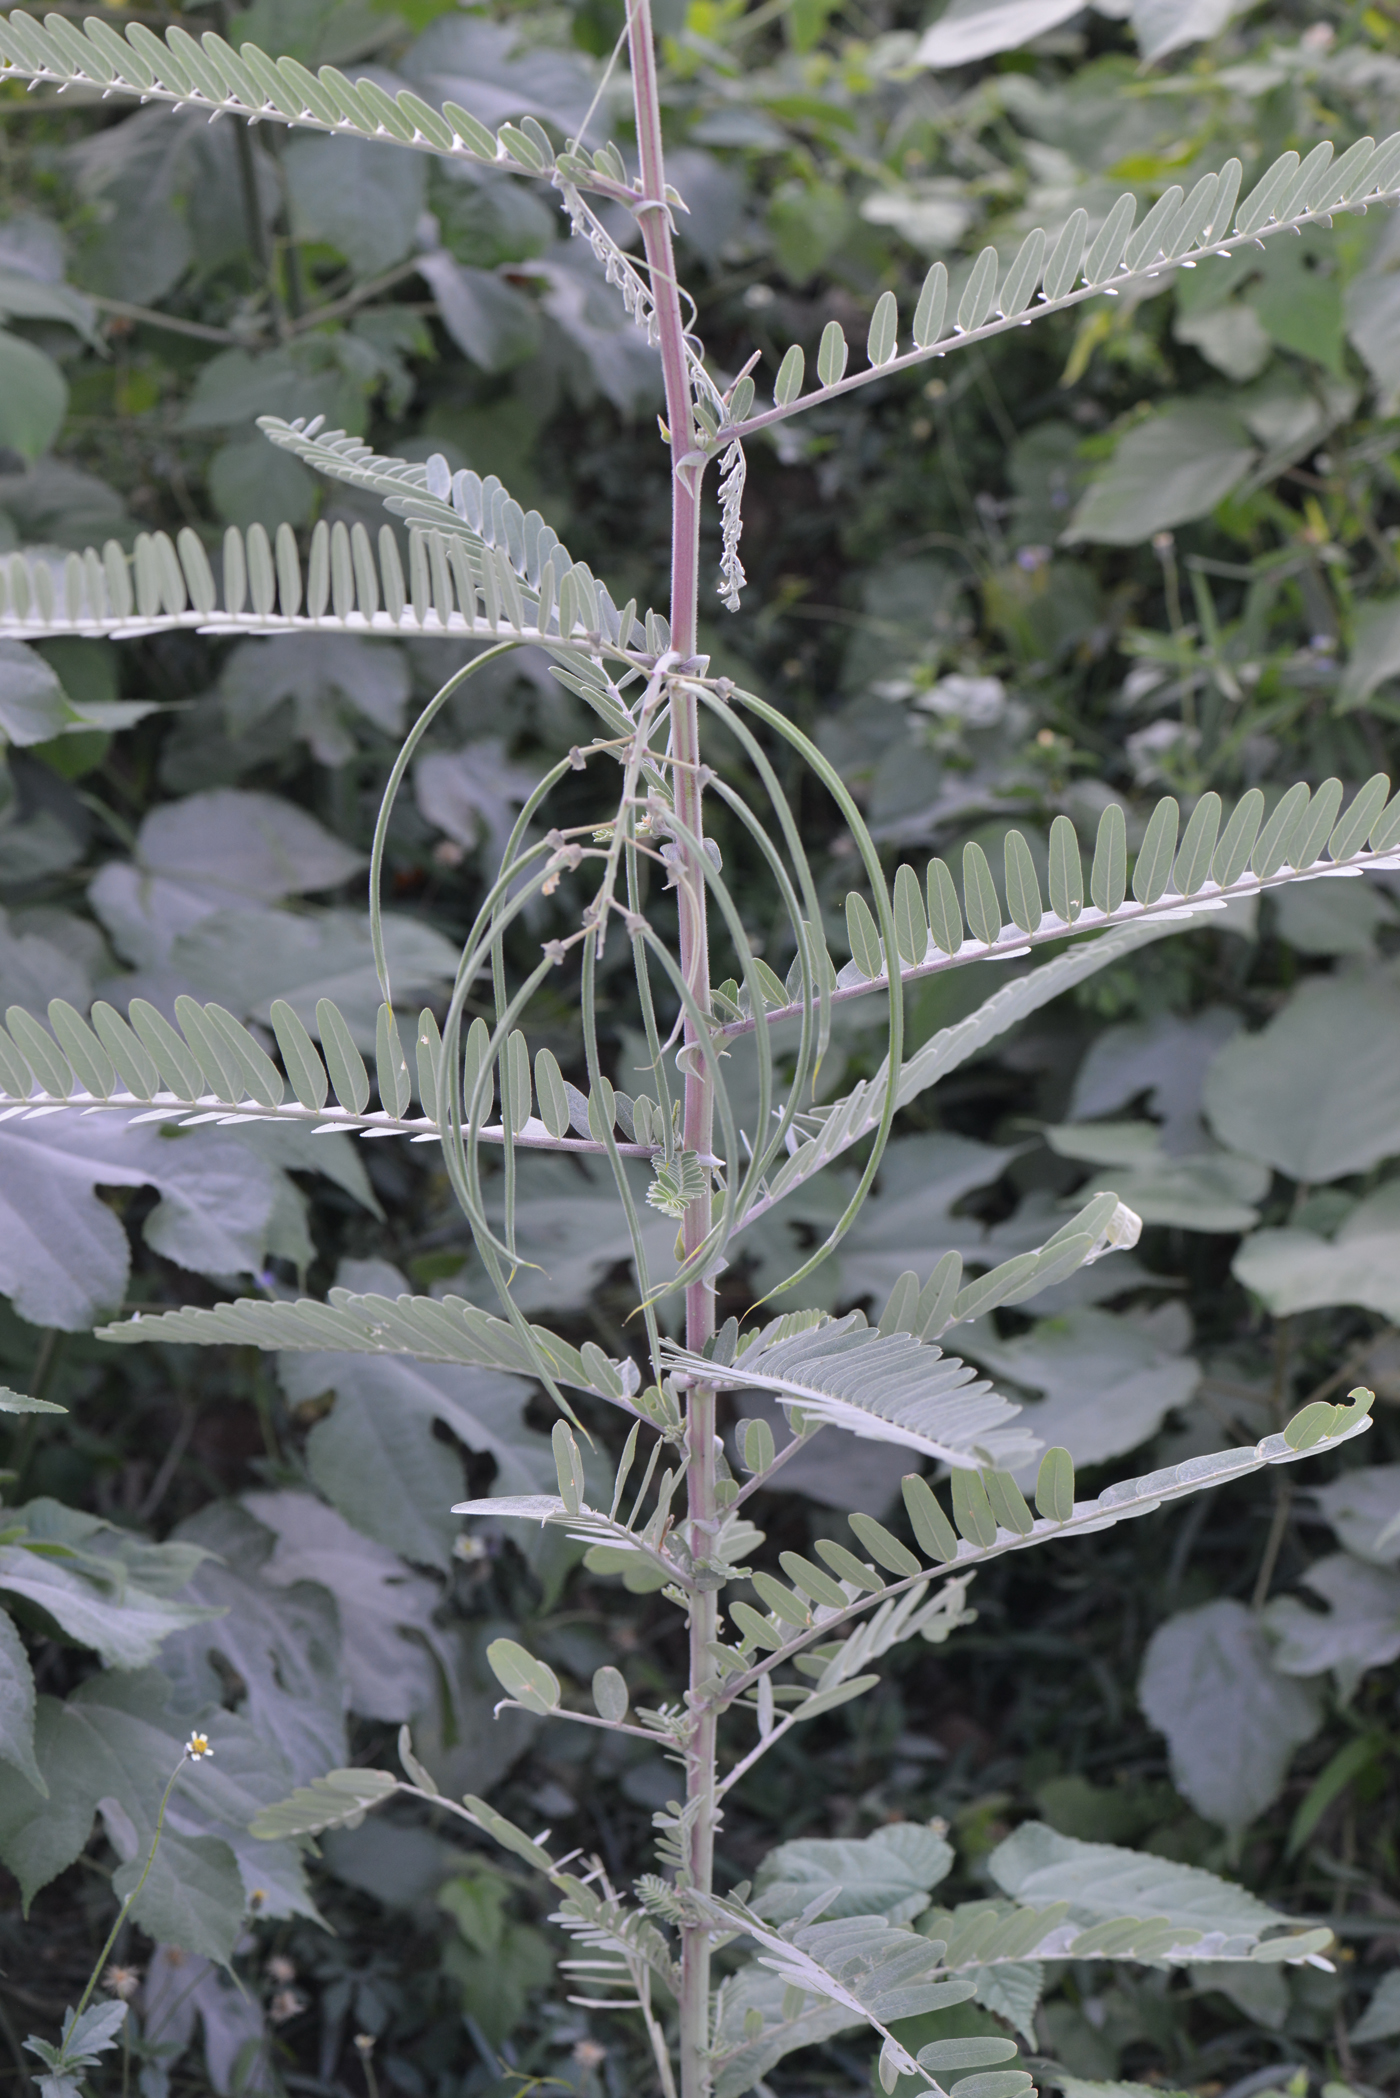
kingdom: Plantae
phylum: Tracheophyta
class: Magnoliopsida
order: Fabales
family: Fabaceae
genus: Sesbania
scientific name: Sesbania speciosa
